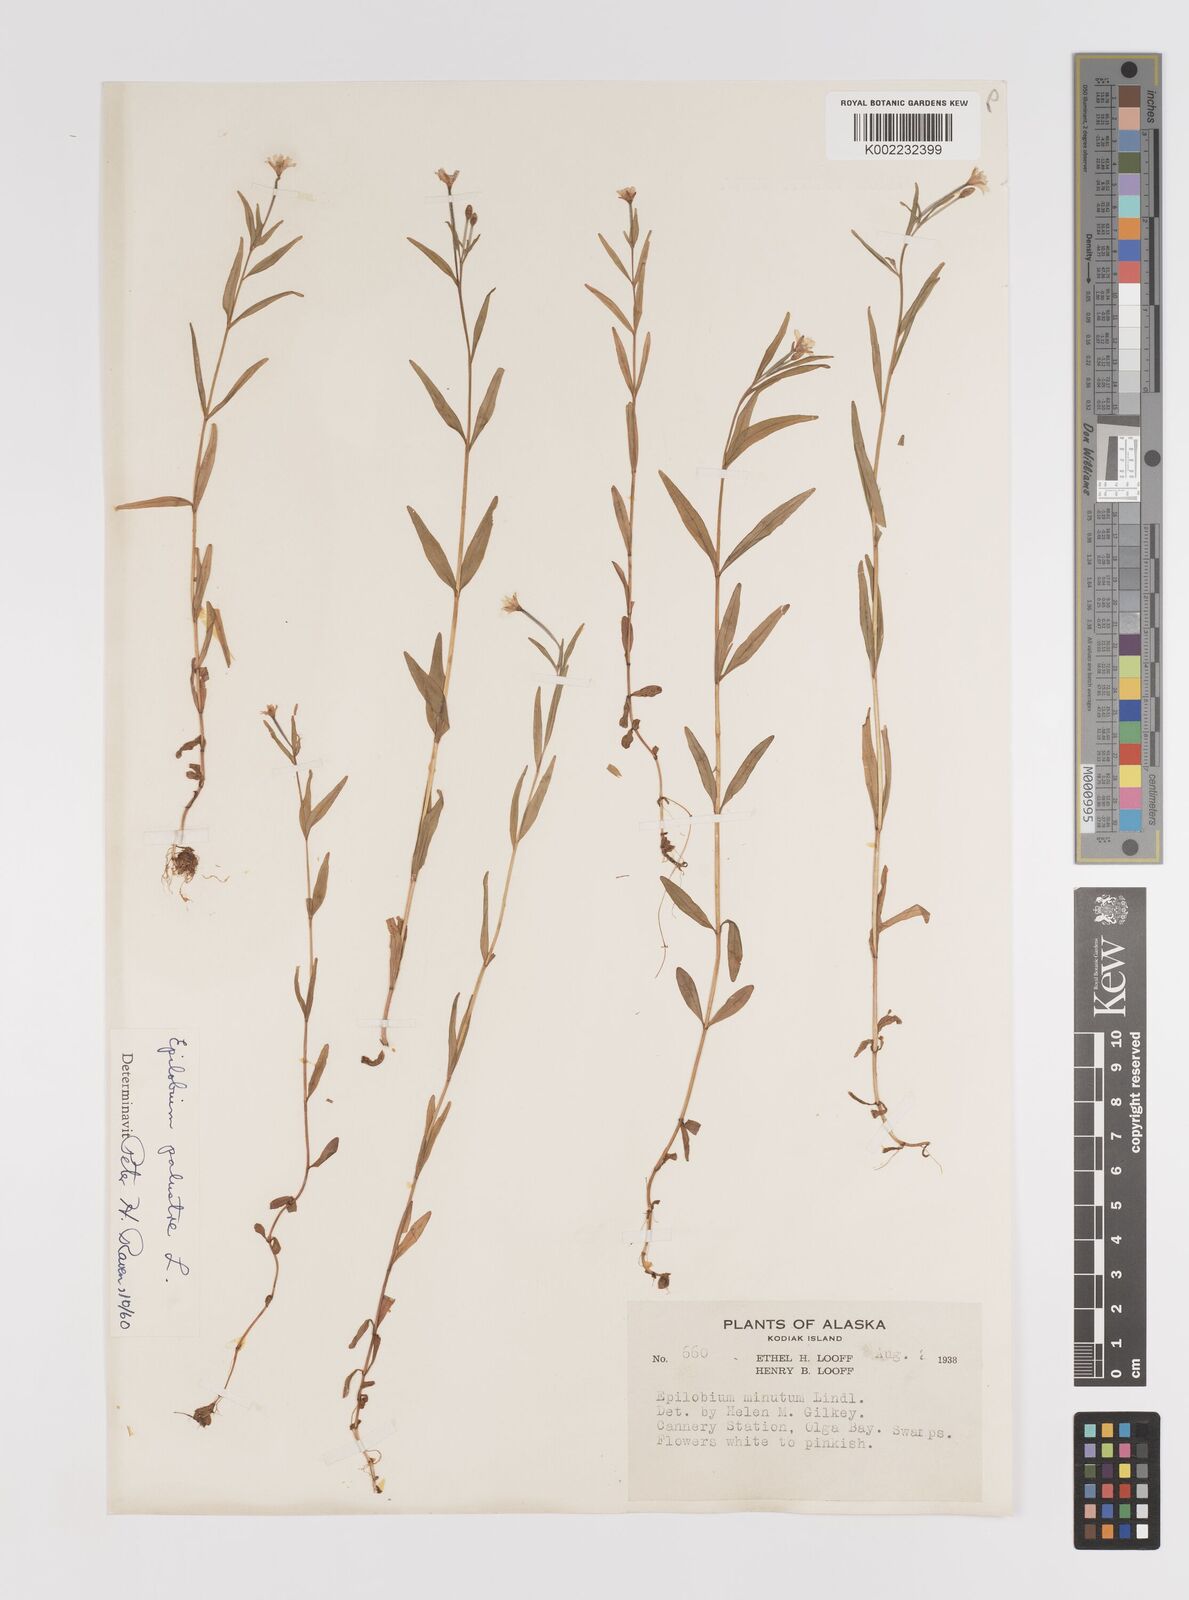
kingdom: Plantae
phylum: Tracheophyta
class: Magnoliopsida
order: Myrtales
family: Onagraceae
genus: Epilobium
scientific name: Epilobium palustre
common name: Marsh willowherb
